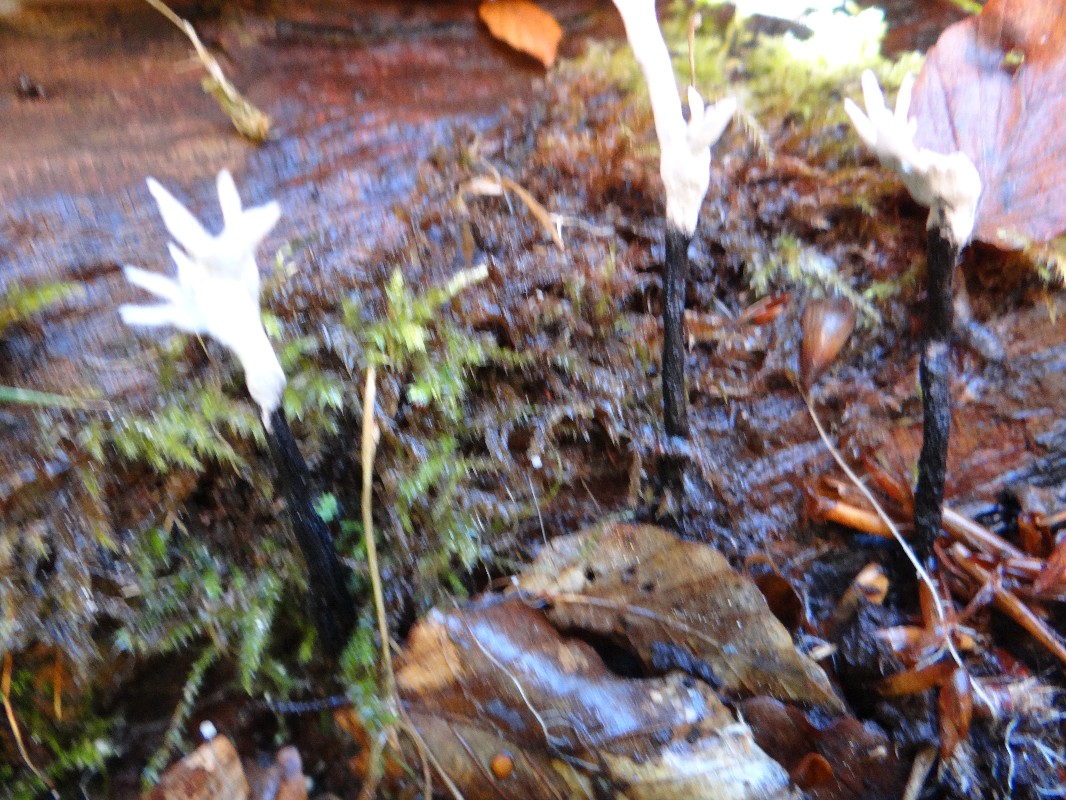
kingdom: Fungi
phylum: Ascomycota
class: Sordariomycetes
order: Xylariales
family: Xylariaceae
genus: Xylaria
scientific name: Xylaria hypoxylon
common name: grenet stødsvamp
